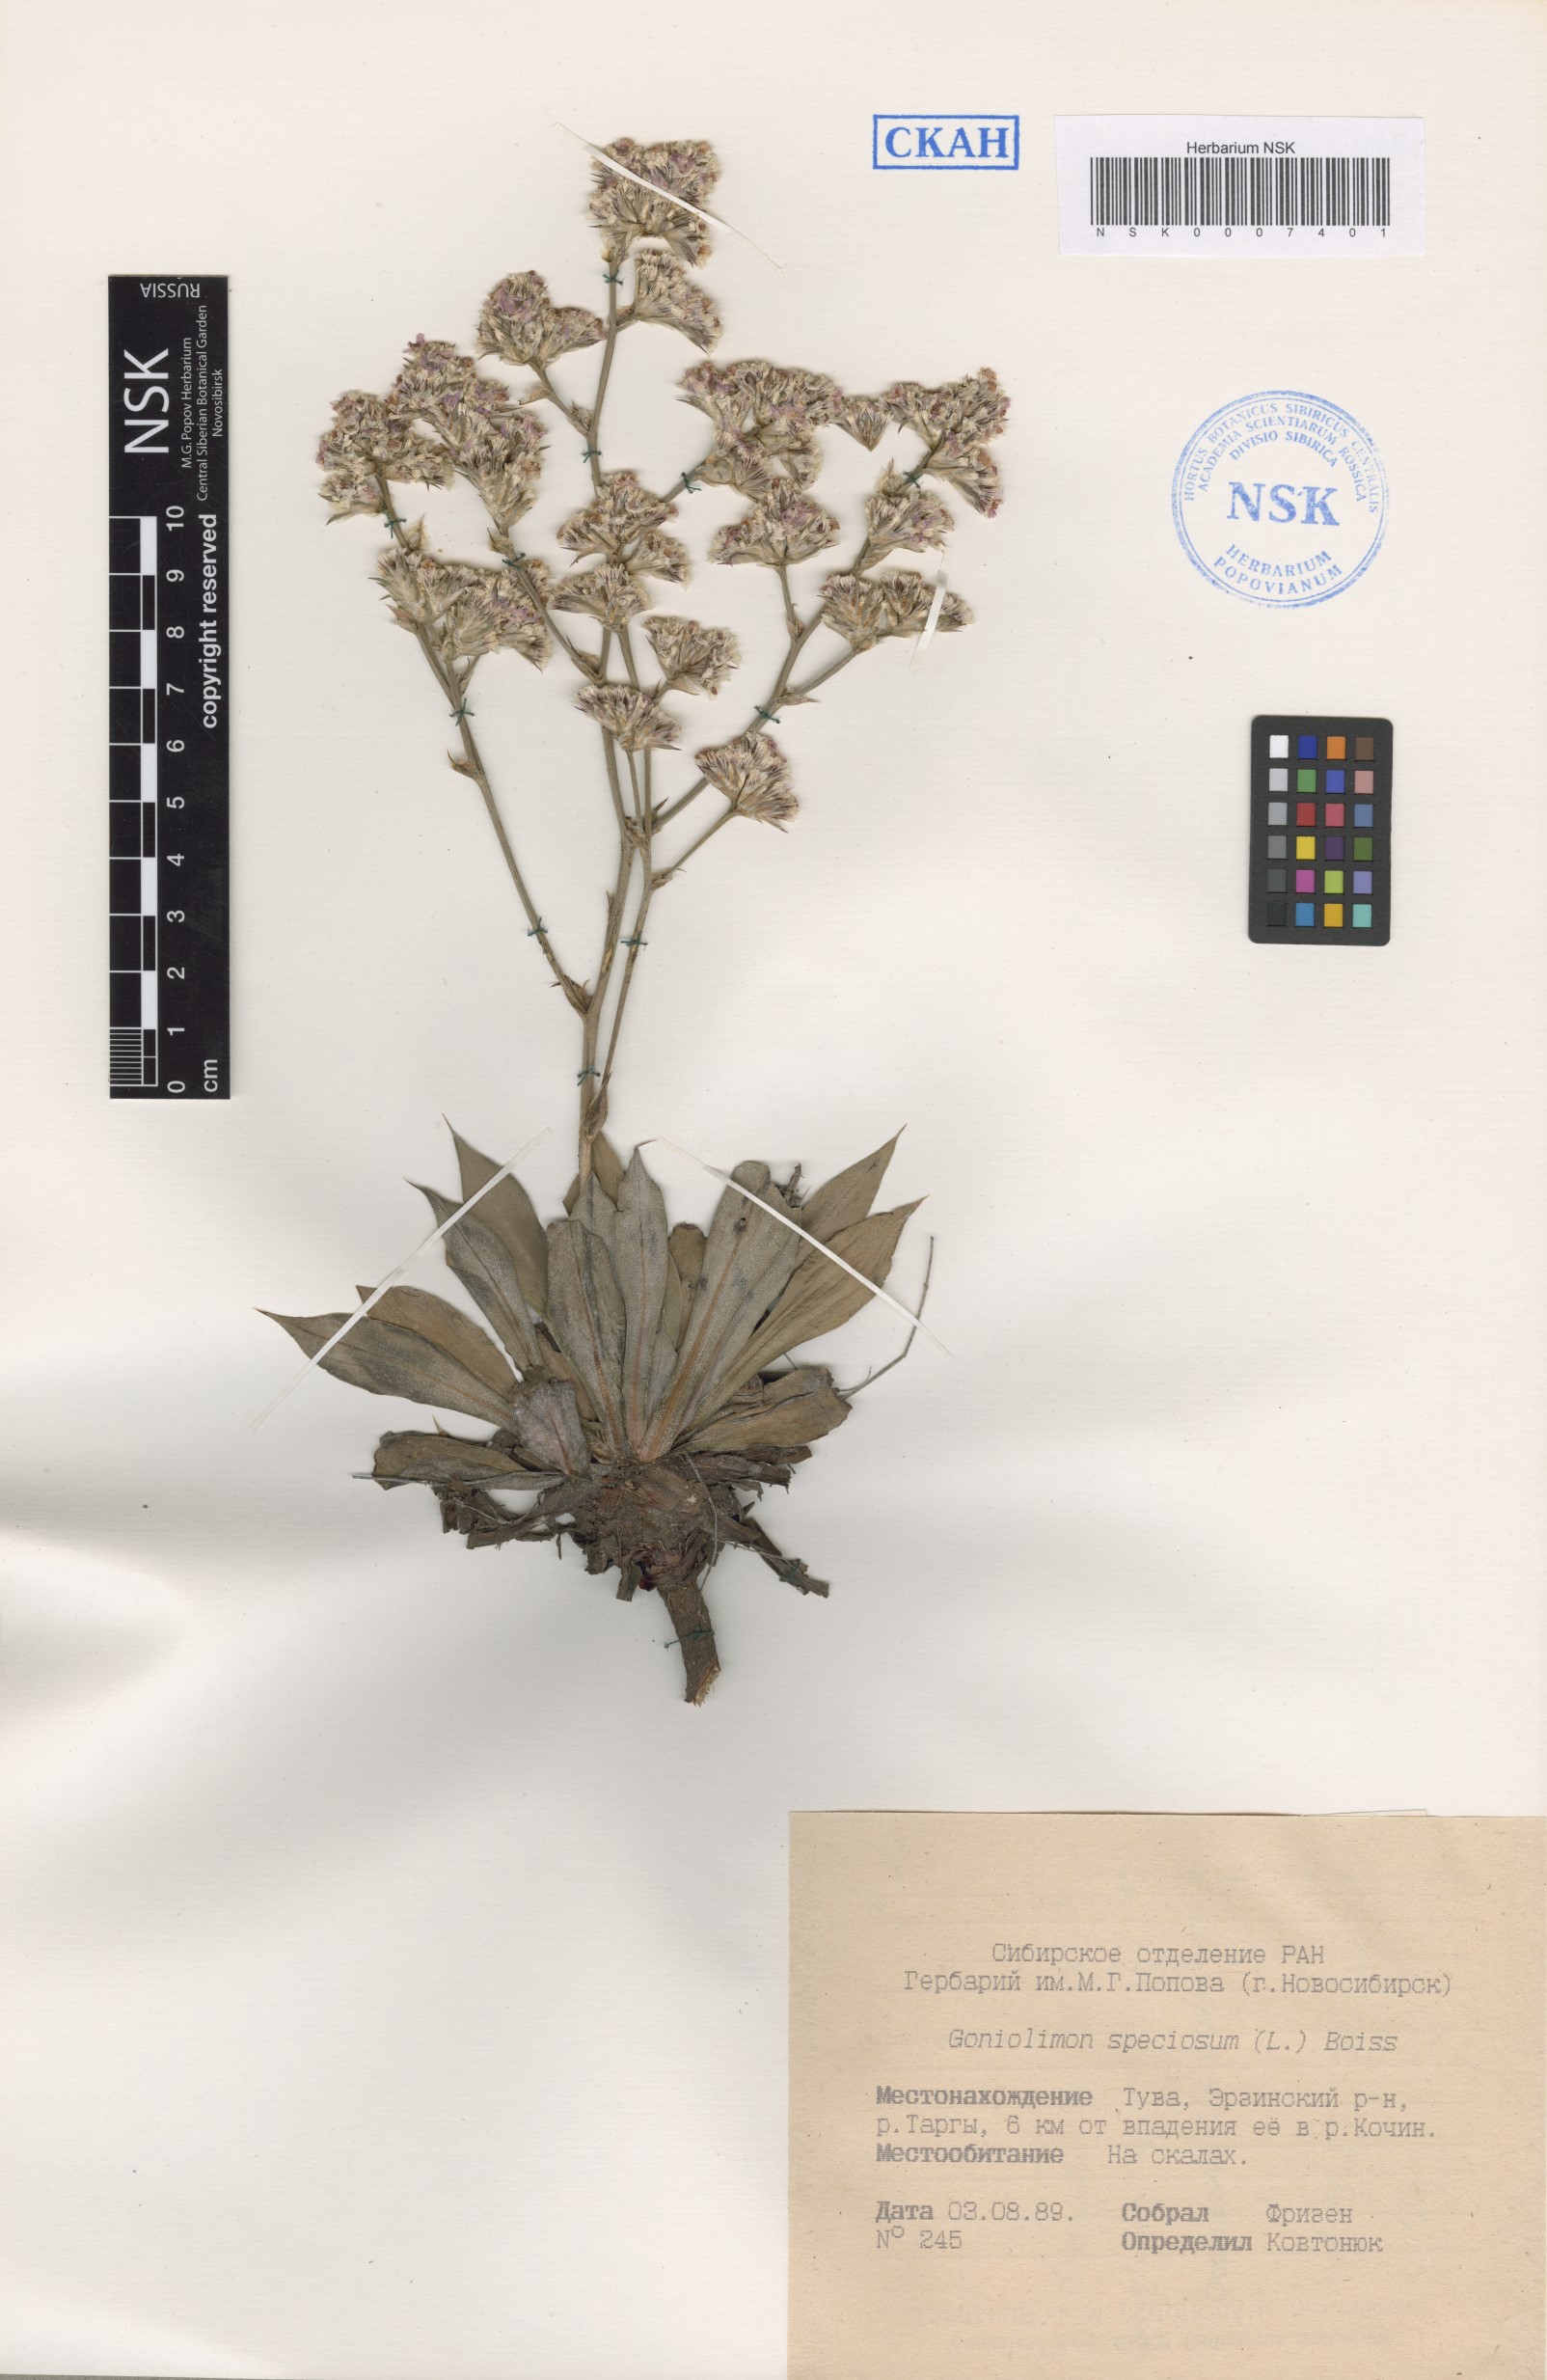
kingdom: Plantae
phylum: Tracheophyta
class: Magnoliopsida
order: Caryophyllales
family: Plumbaginaceae
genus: Goniolimon
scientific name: Goniolimon speciosum
